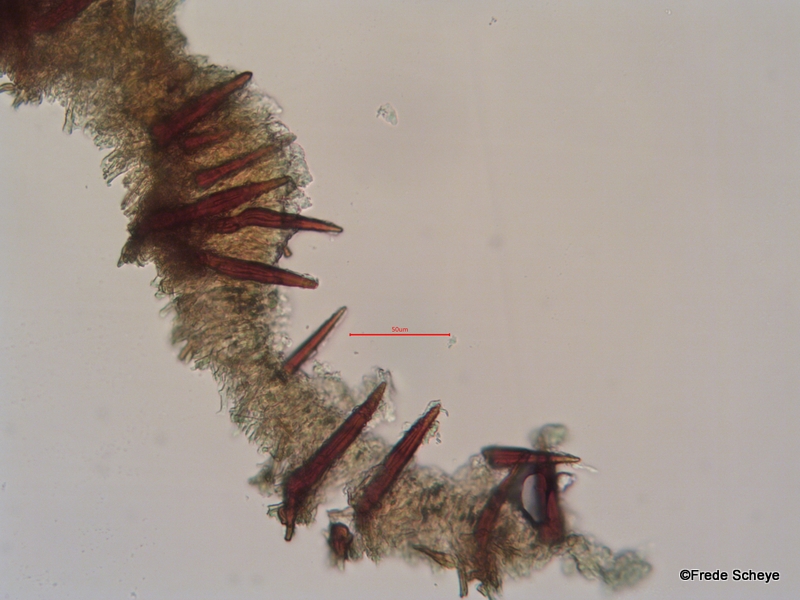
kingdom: Fungi
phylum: Basidiomycota
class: Agaricomycetes
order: Hymenochaetales
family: Hymenochaetaceae
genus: Hydnoporia
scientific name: Hydnoporia tabacina
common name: tobaksbrun ruslædersvamp
